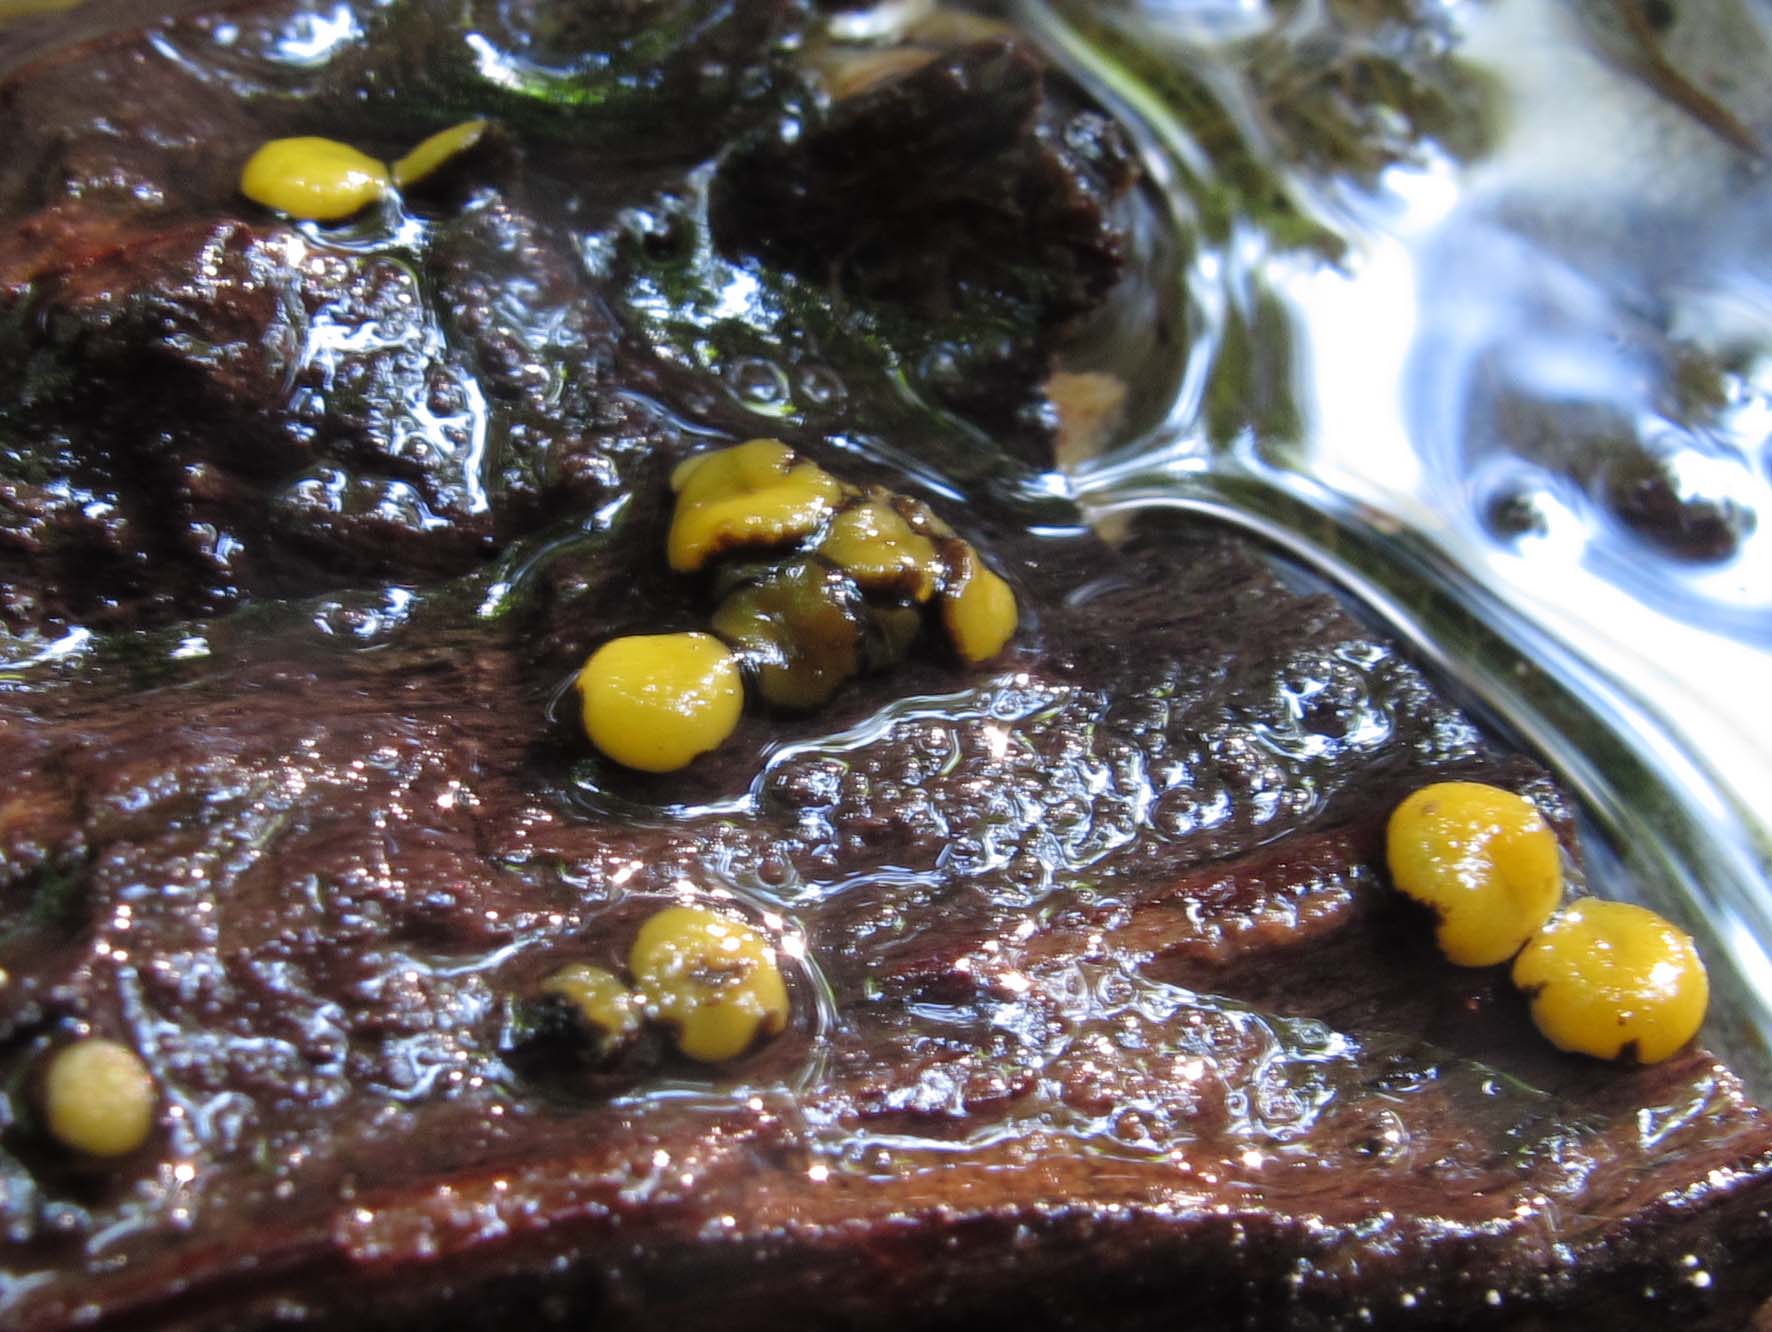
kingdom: Fungi
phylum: Ascomycota
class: Leotiomycetes
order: Helotiales
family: Vibrisseaceae
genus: Vibrissea
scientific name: Vibrissea flavovirens
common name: gulgrøn bækskive
